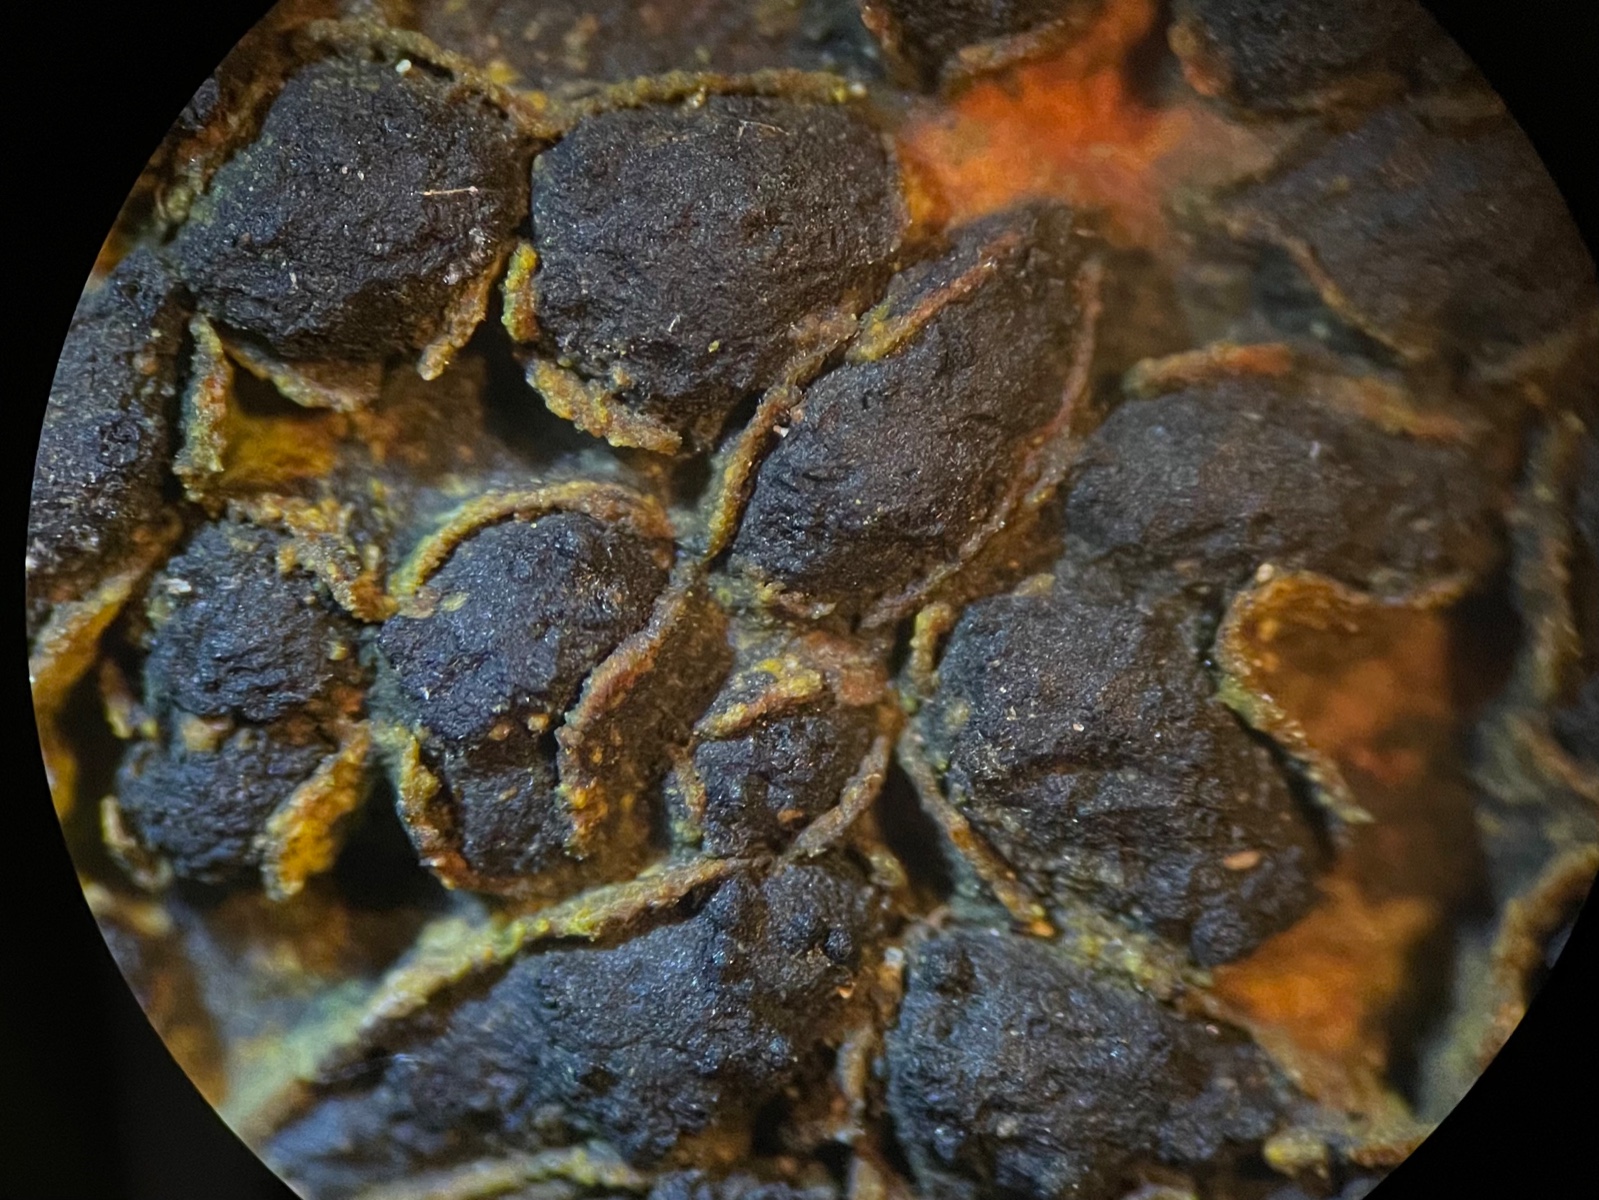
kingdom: Fungi
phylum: Ascomycota
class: Sordariomycetes
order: Xylariales
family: Melogrammataceae
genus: Melogramma
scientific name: Melogramma spiniferum
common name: bøgefod-kulhals
